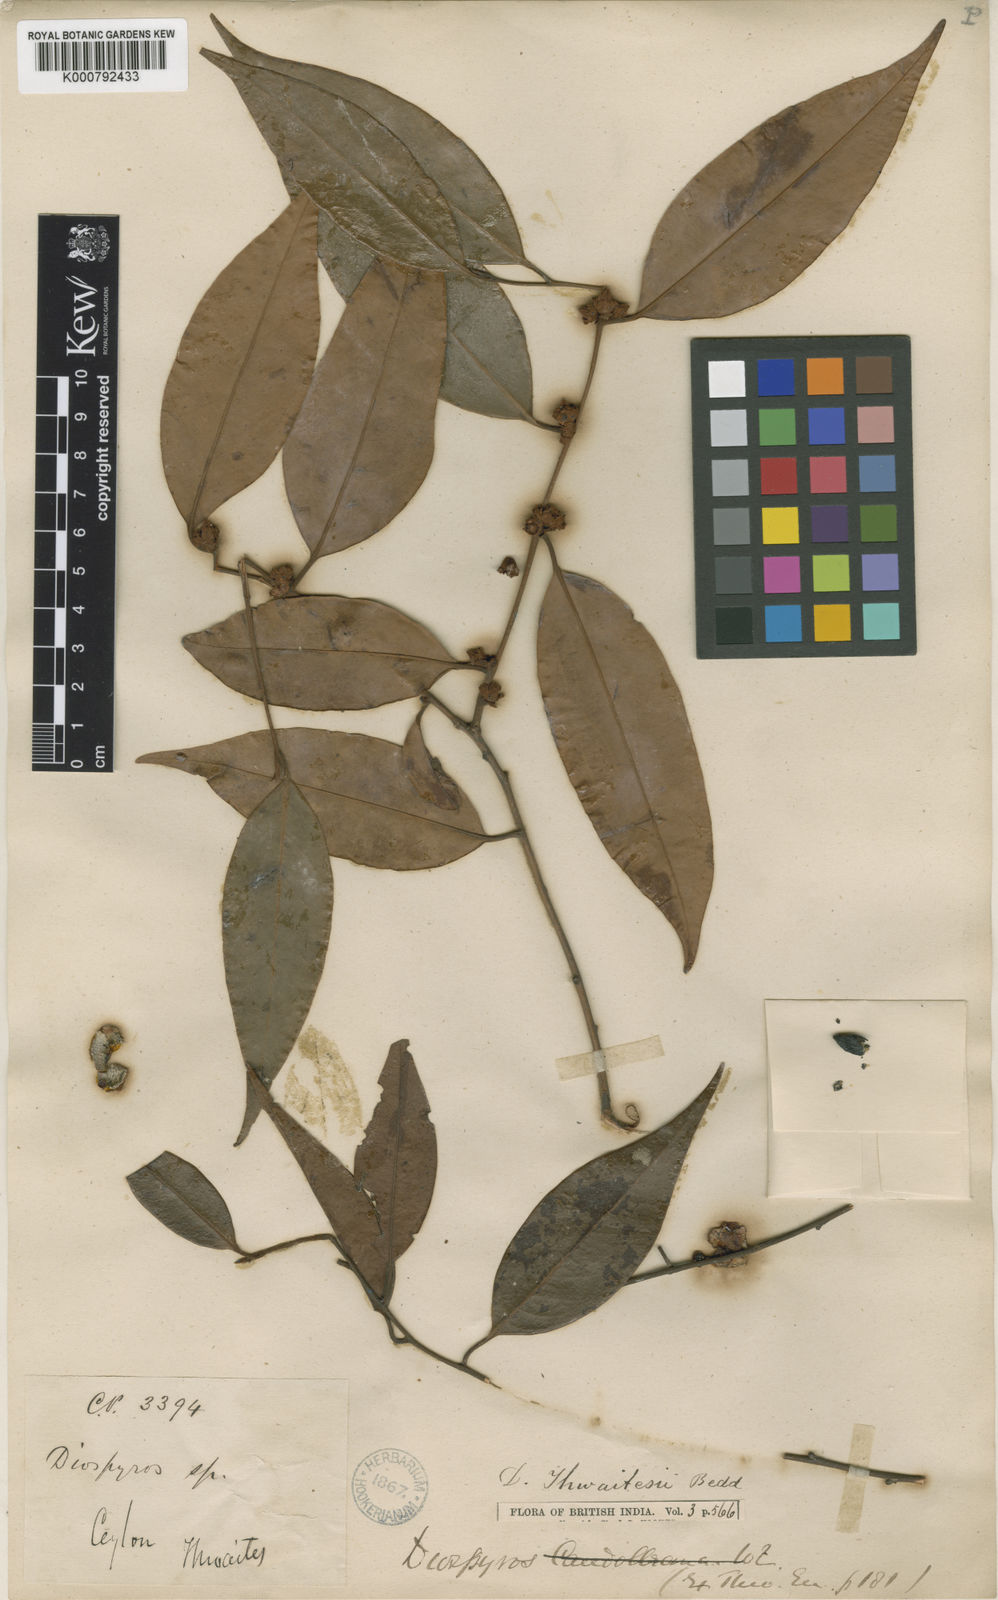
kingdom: Plantae
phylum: Tracheophyta
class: Magnoliopsida
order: Ericales
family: Ebenaceae
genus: Diospyros
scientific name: Diospyros thwaitesii
